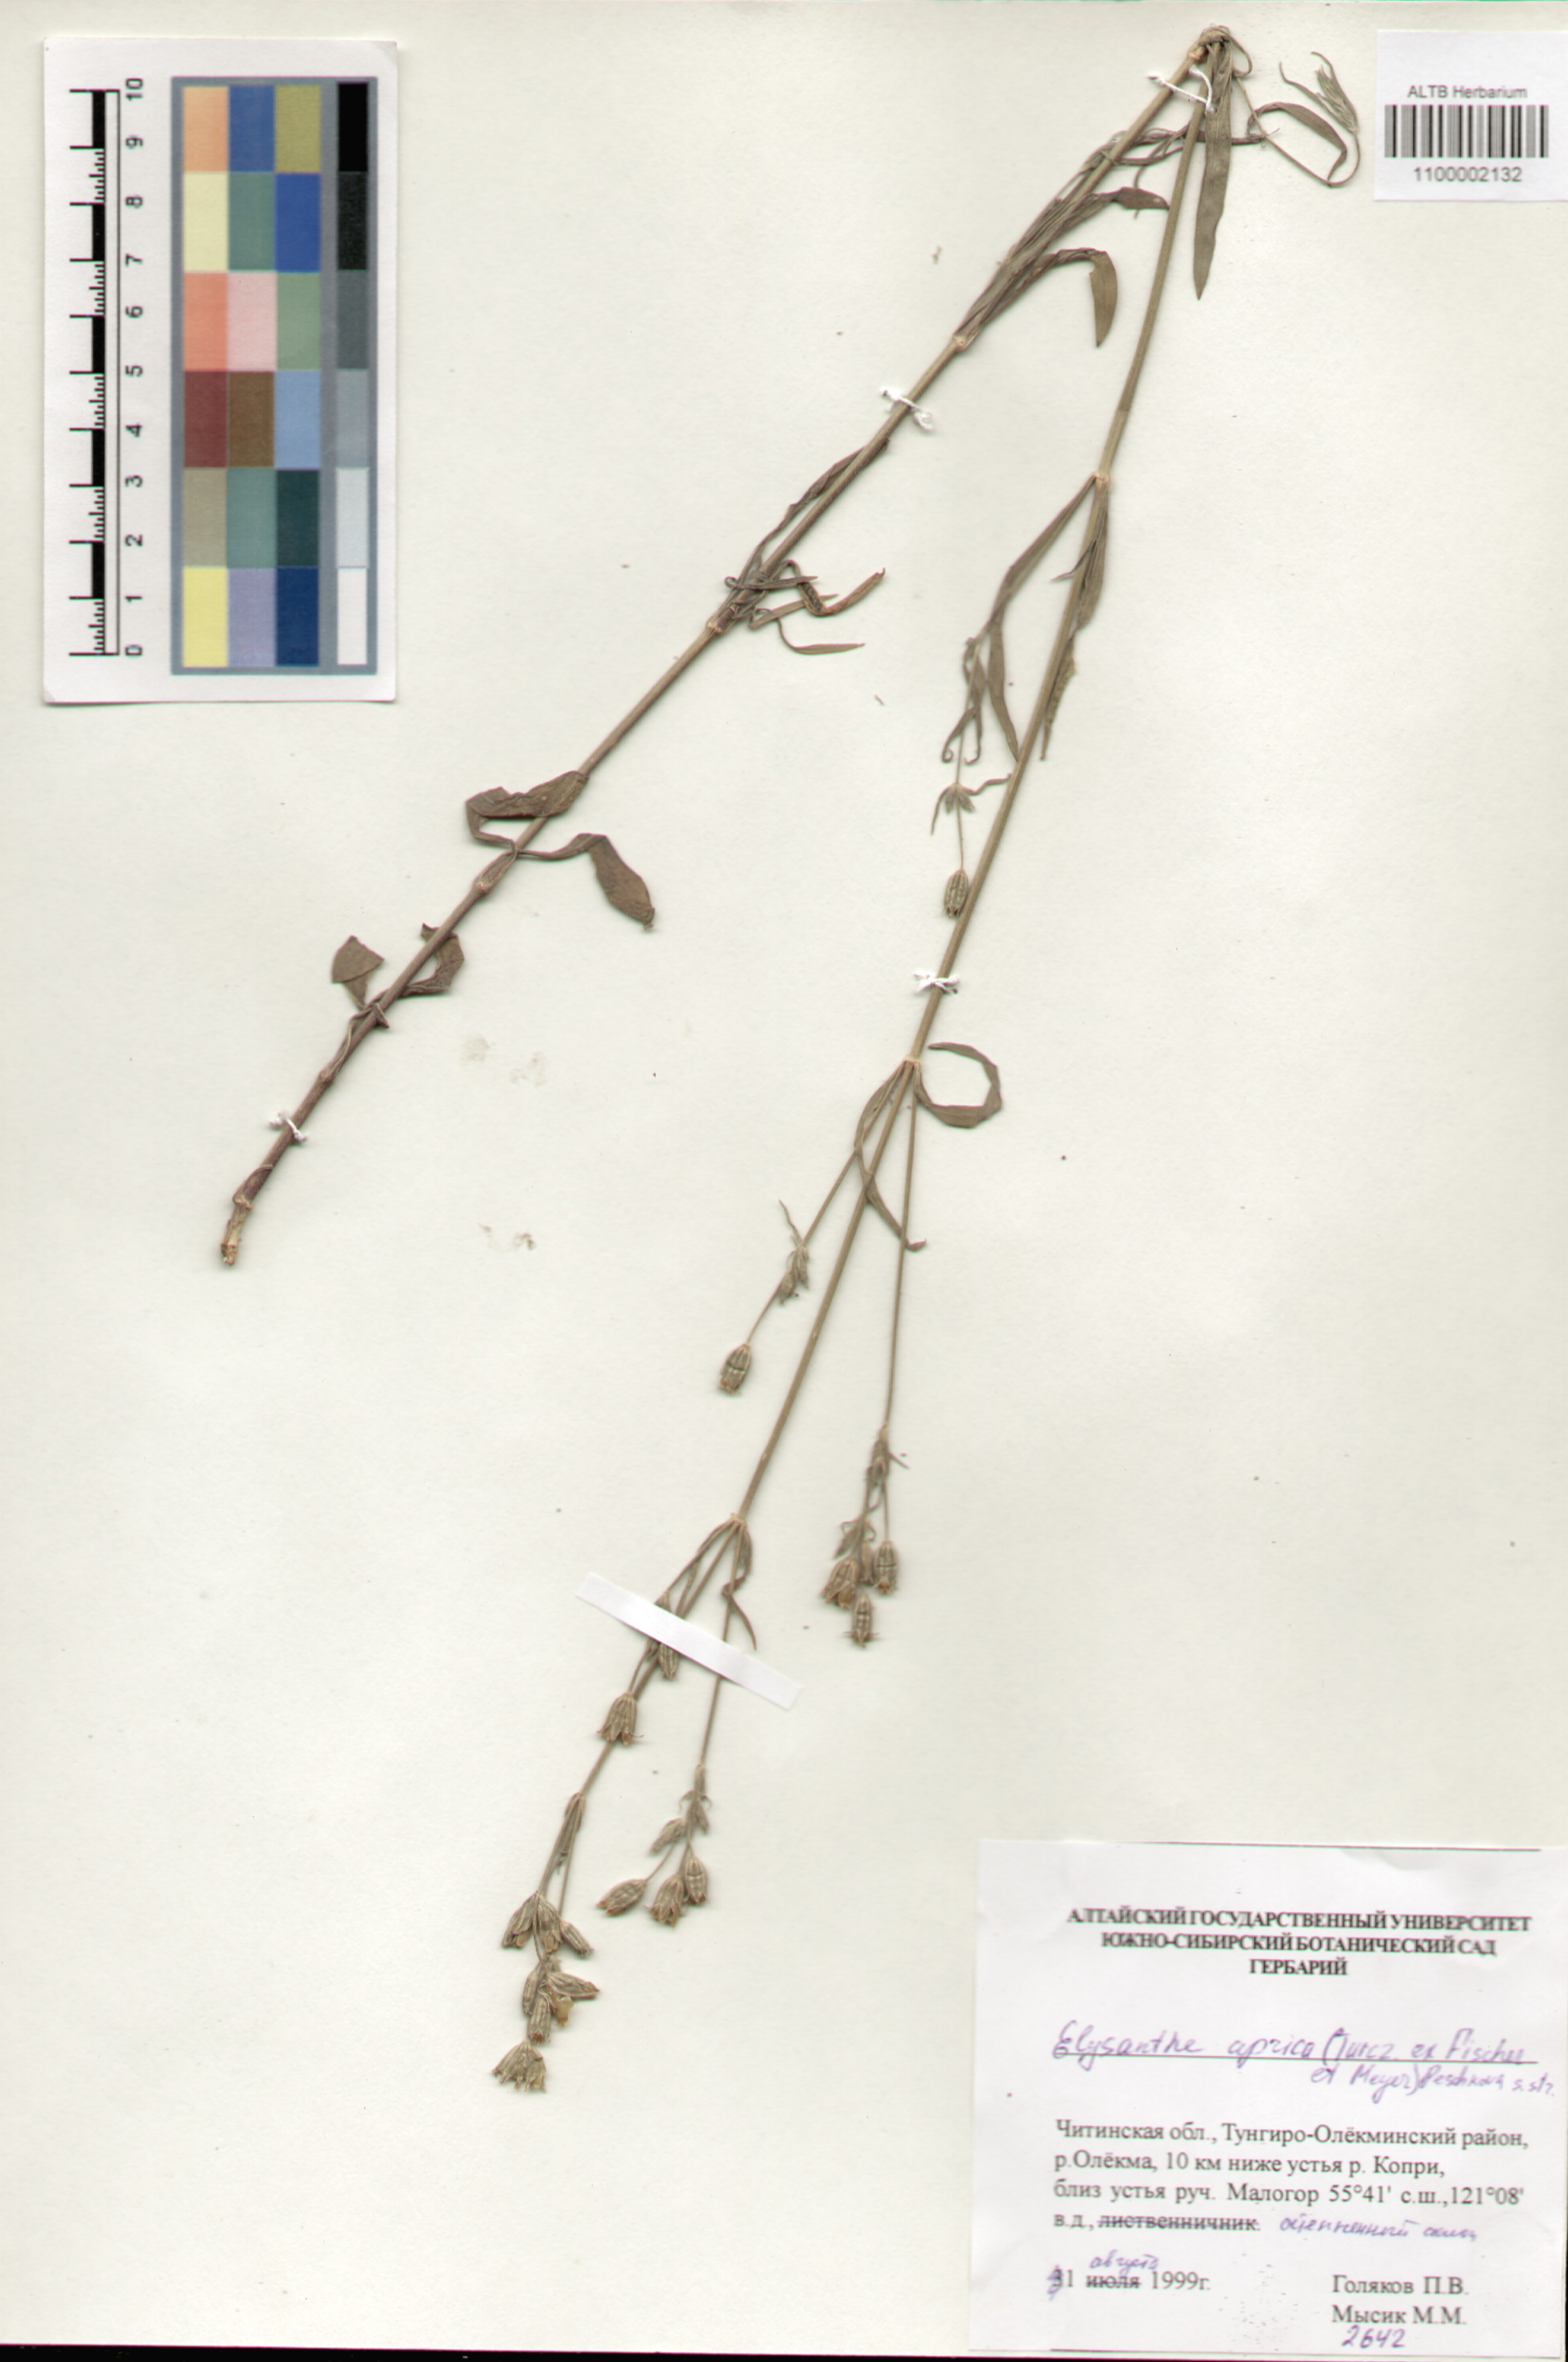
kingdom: Plantae
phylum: Tracheophyta
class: Magnoliopsida
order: Caryophyllales
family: Caryophyllaceae
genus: Silene
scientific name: Silene aprica
